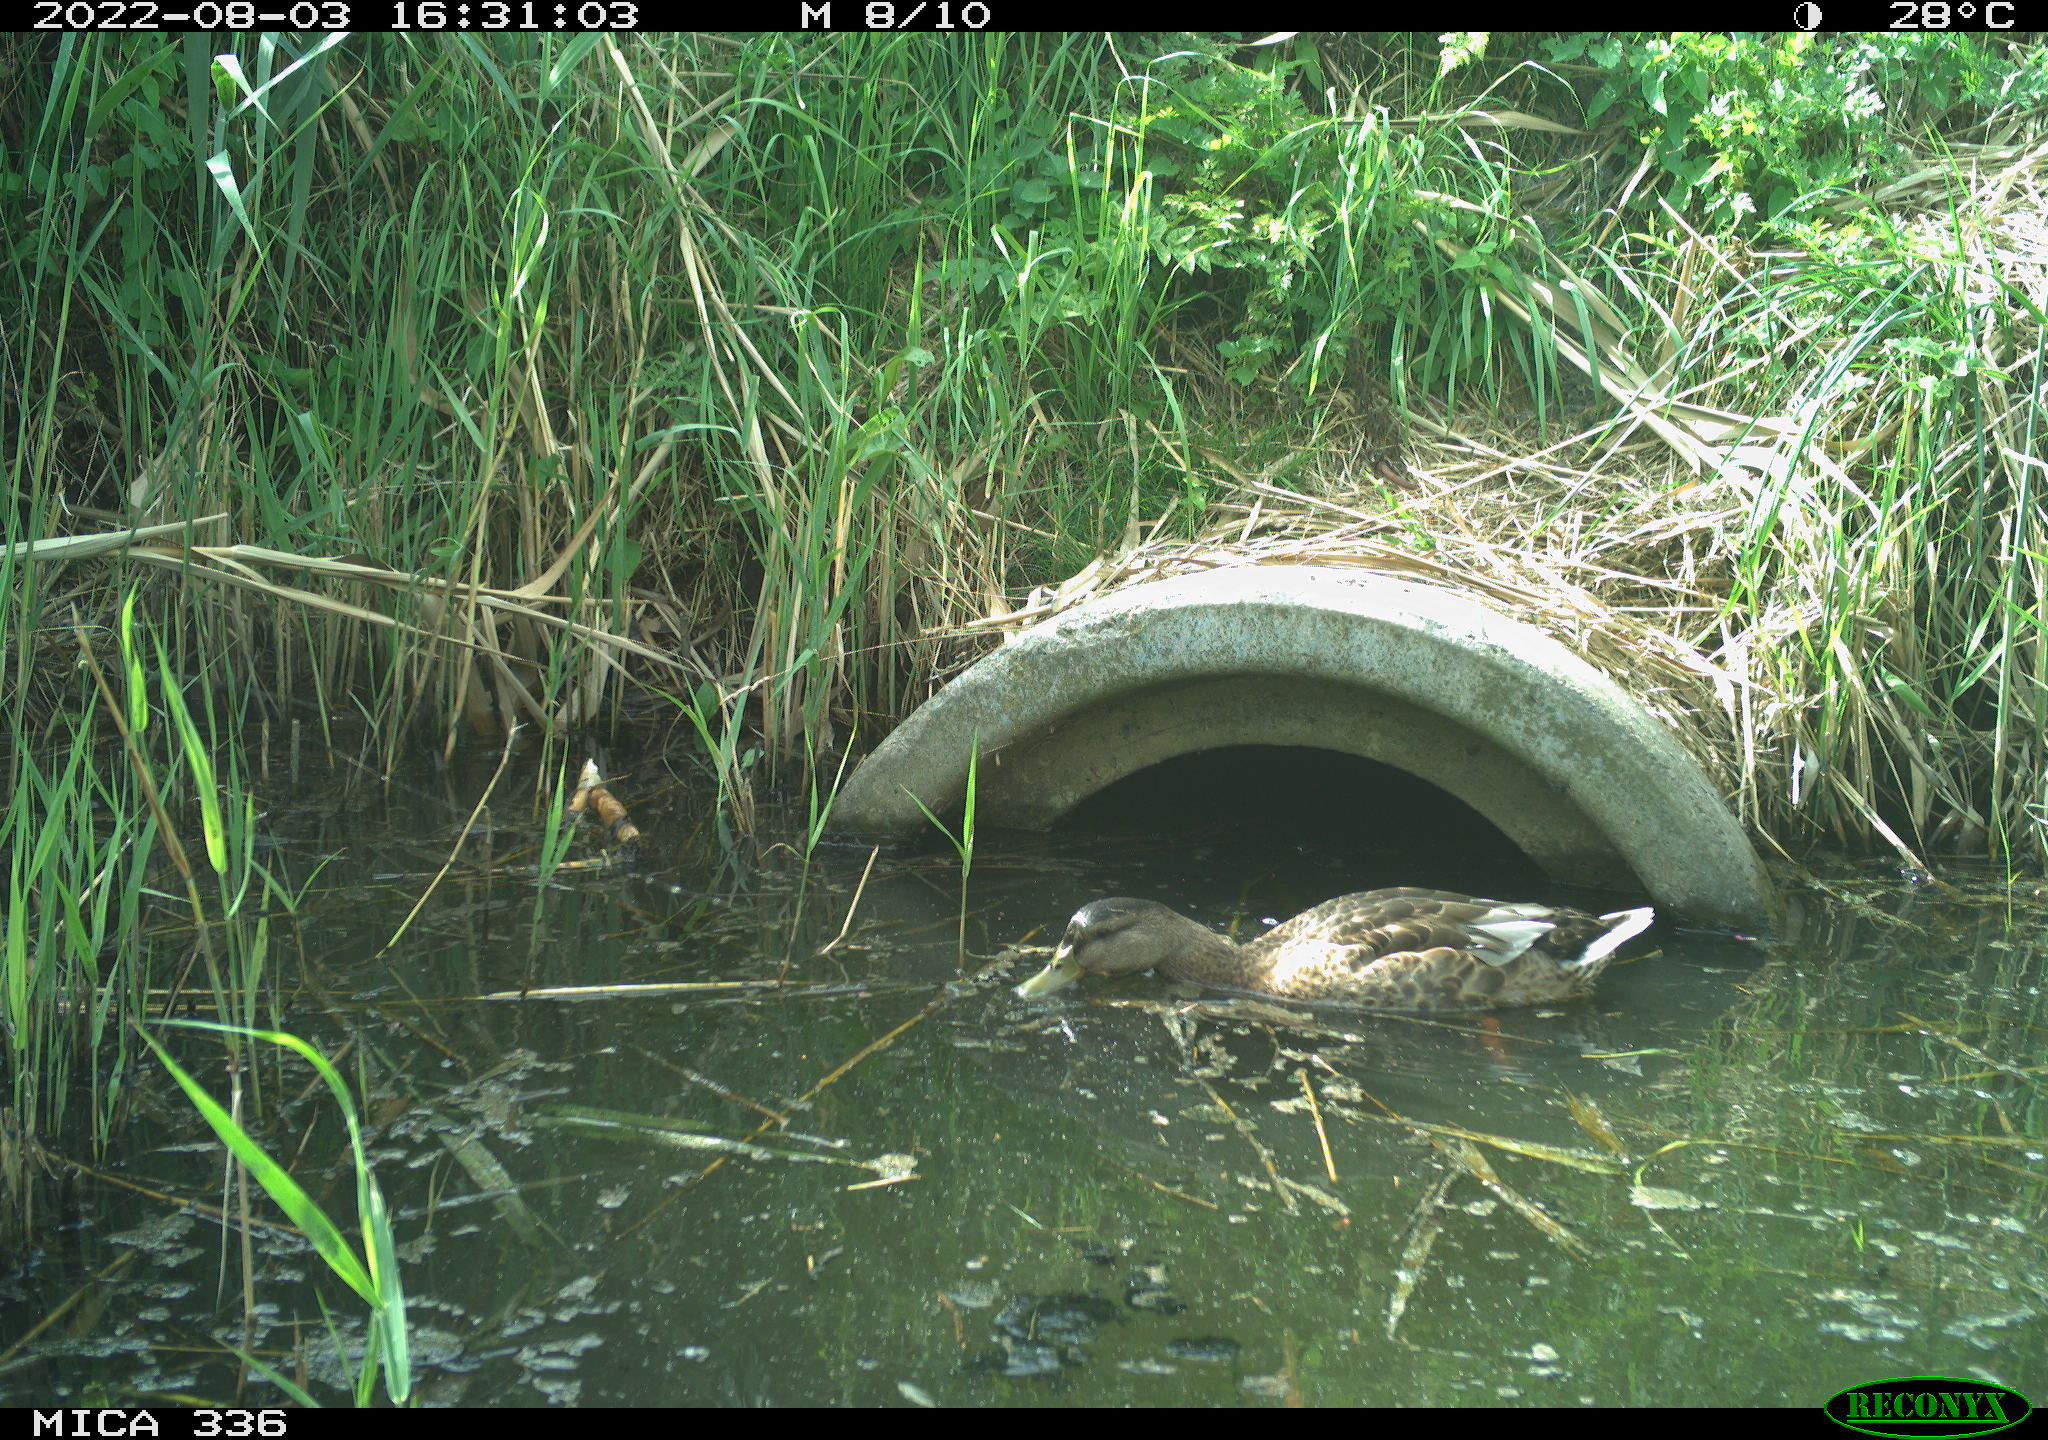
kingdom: Animalia
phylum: Chordata
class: Aves
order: Anseriformes
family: Anatidae
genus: Anas
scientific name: Anas platyrhynchos
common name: Mallard
